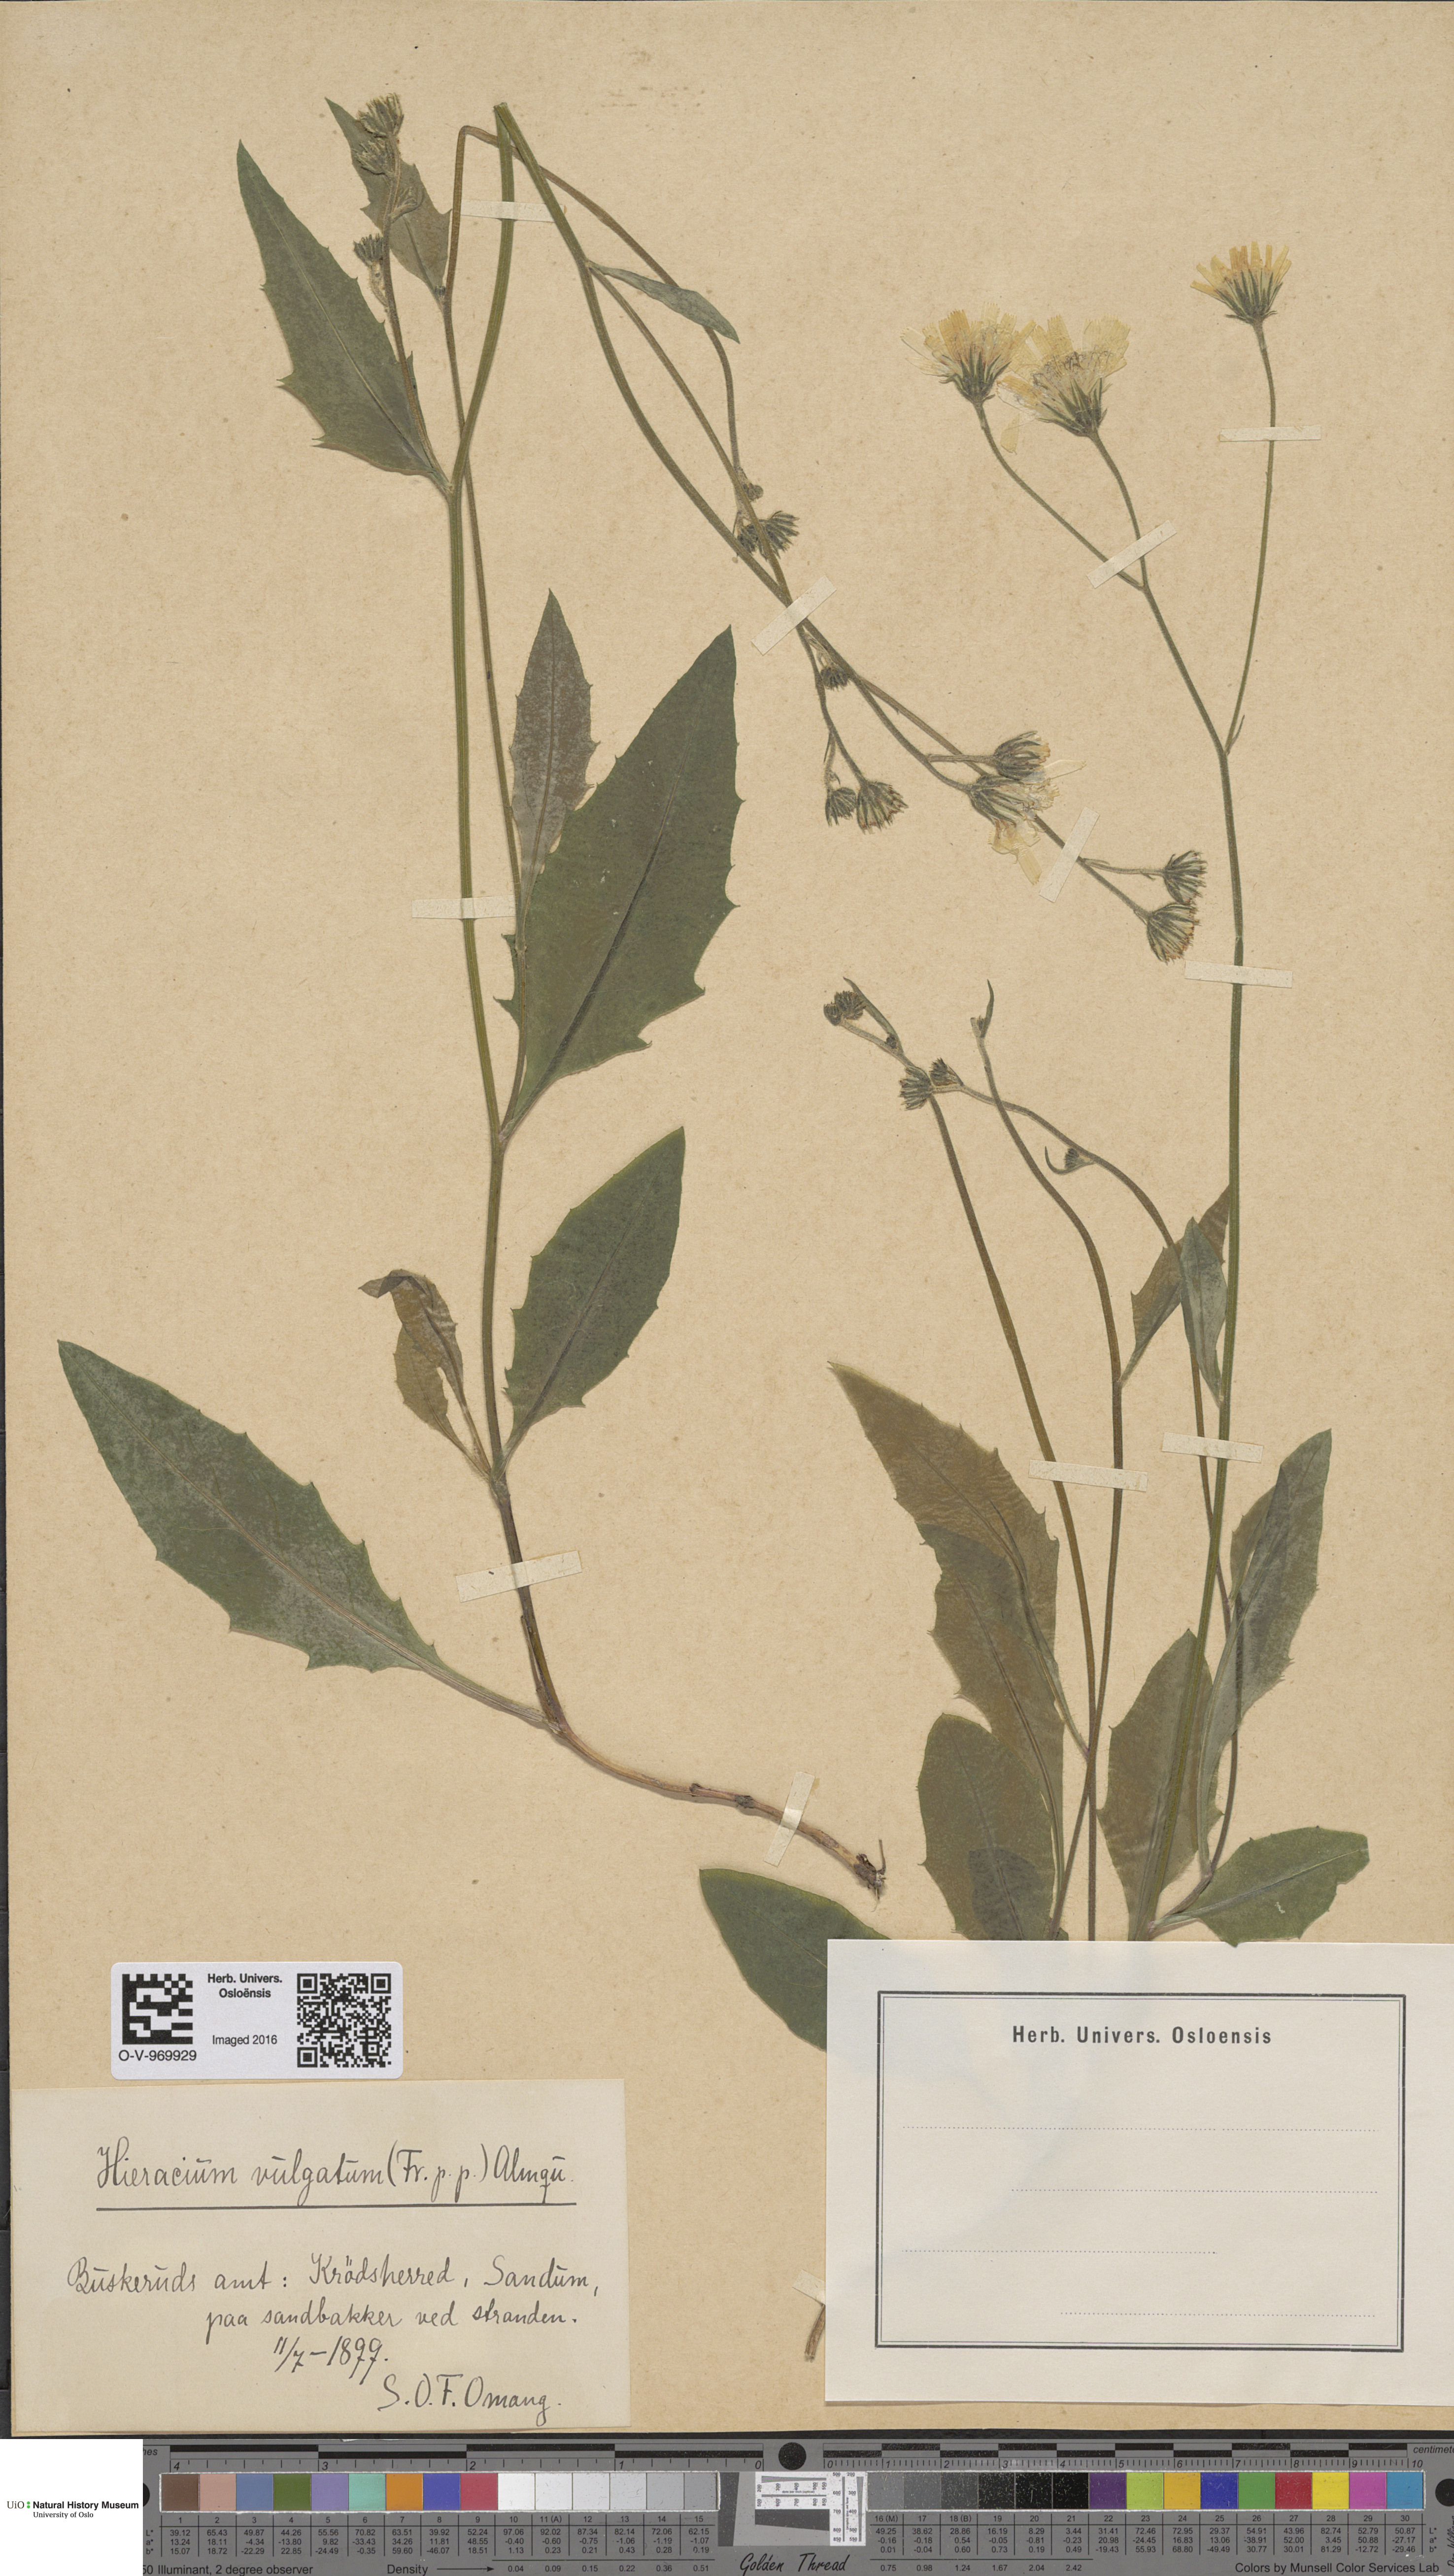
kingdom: Plantae
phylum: Tracheophyta
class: Magnoliopsida
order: Asterales
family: Asteraceae
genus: Hieracium
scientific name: Hieracium vulgatum
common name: Common hawkweed
